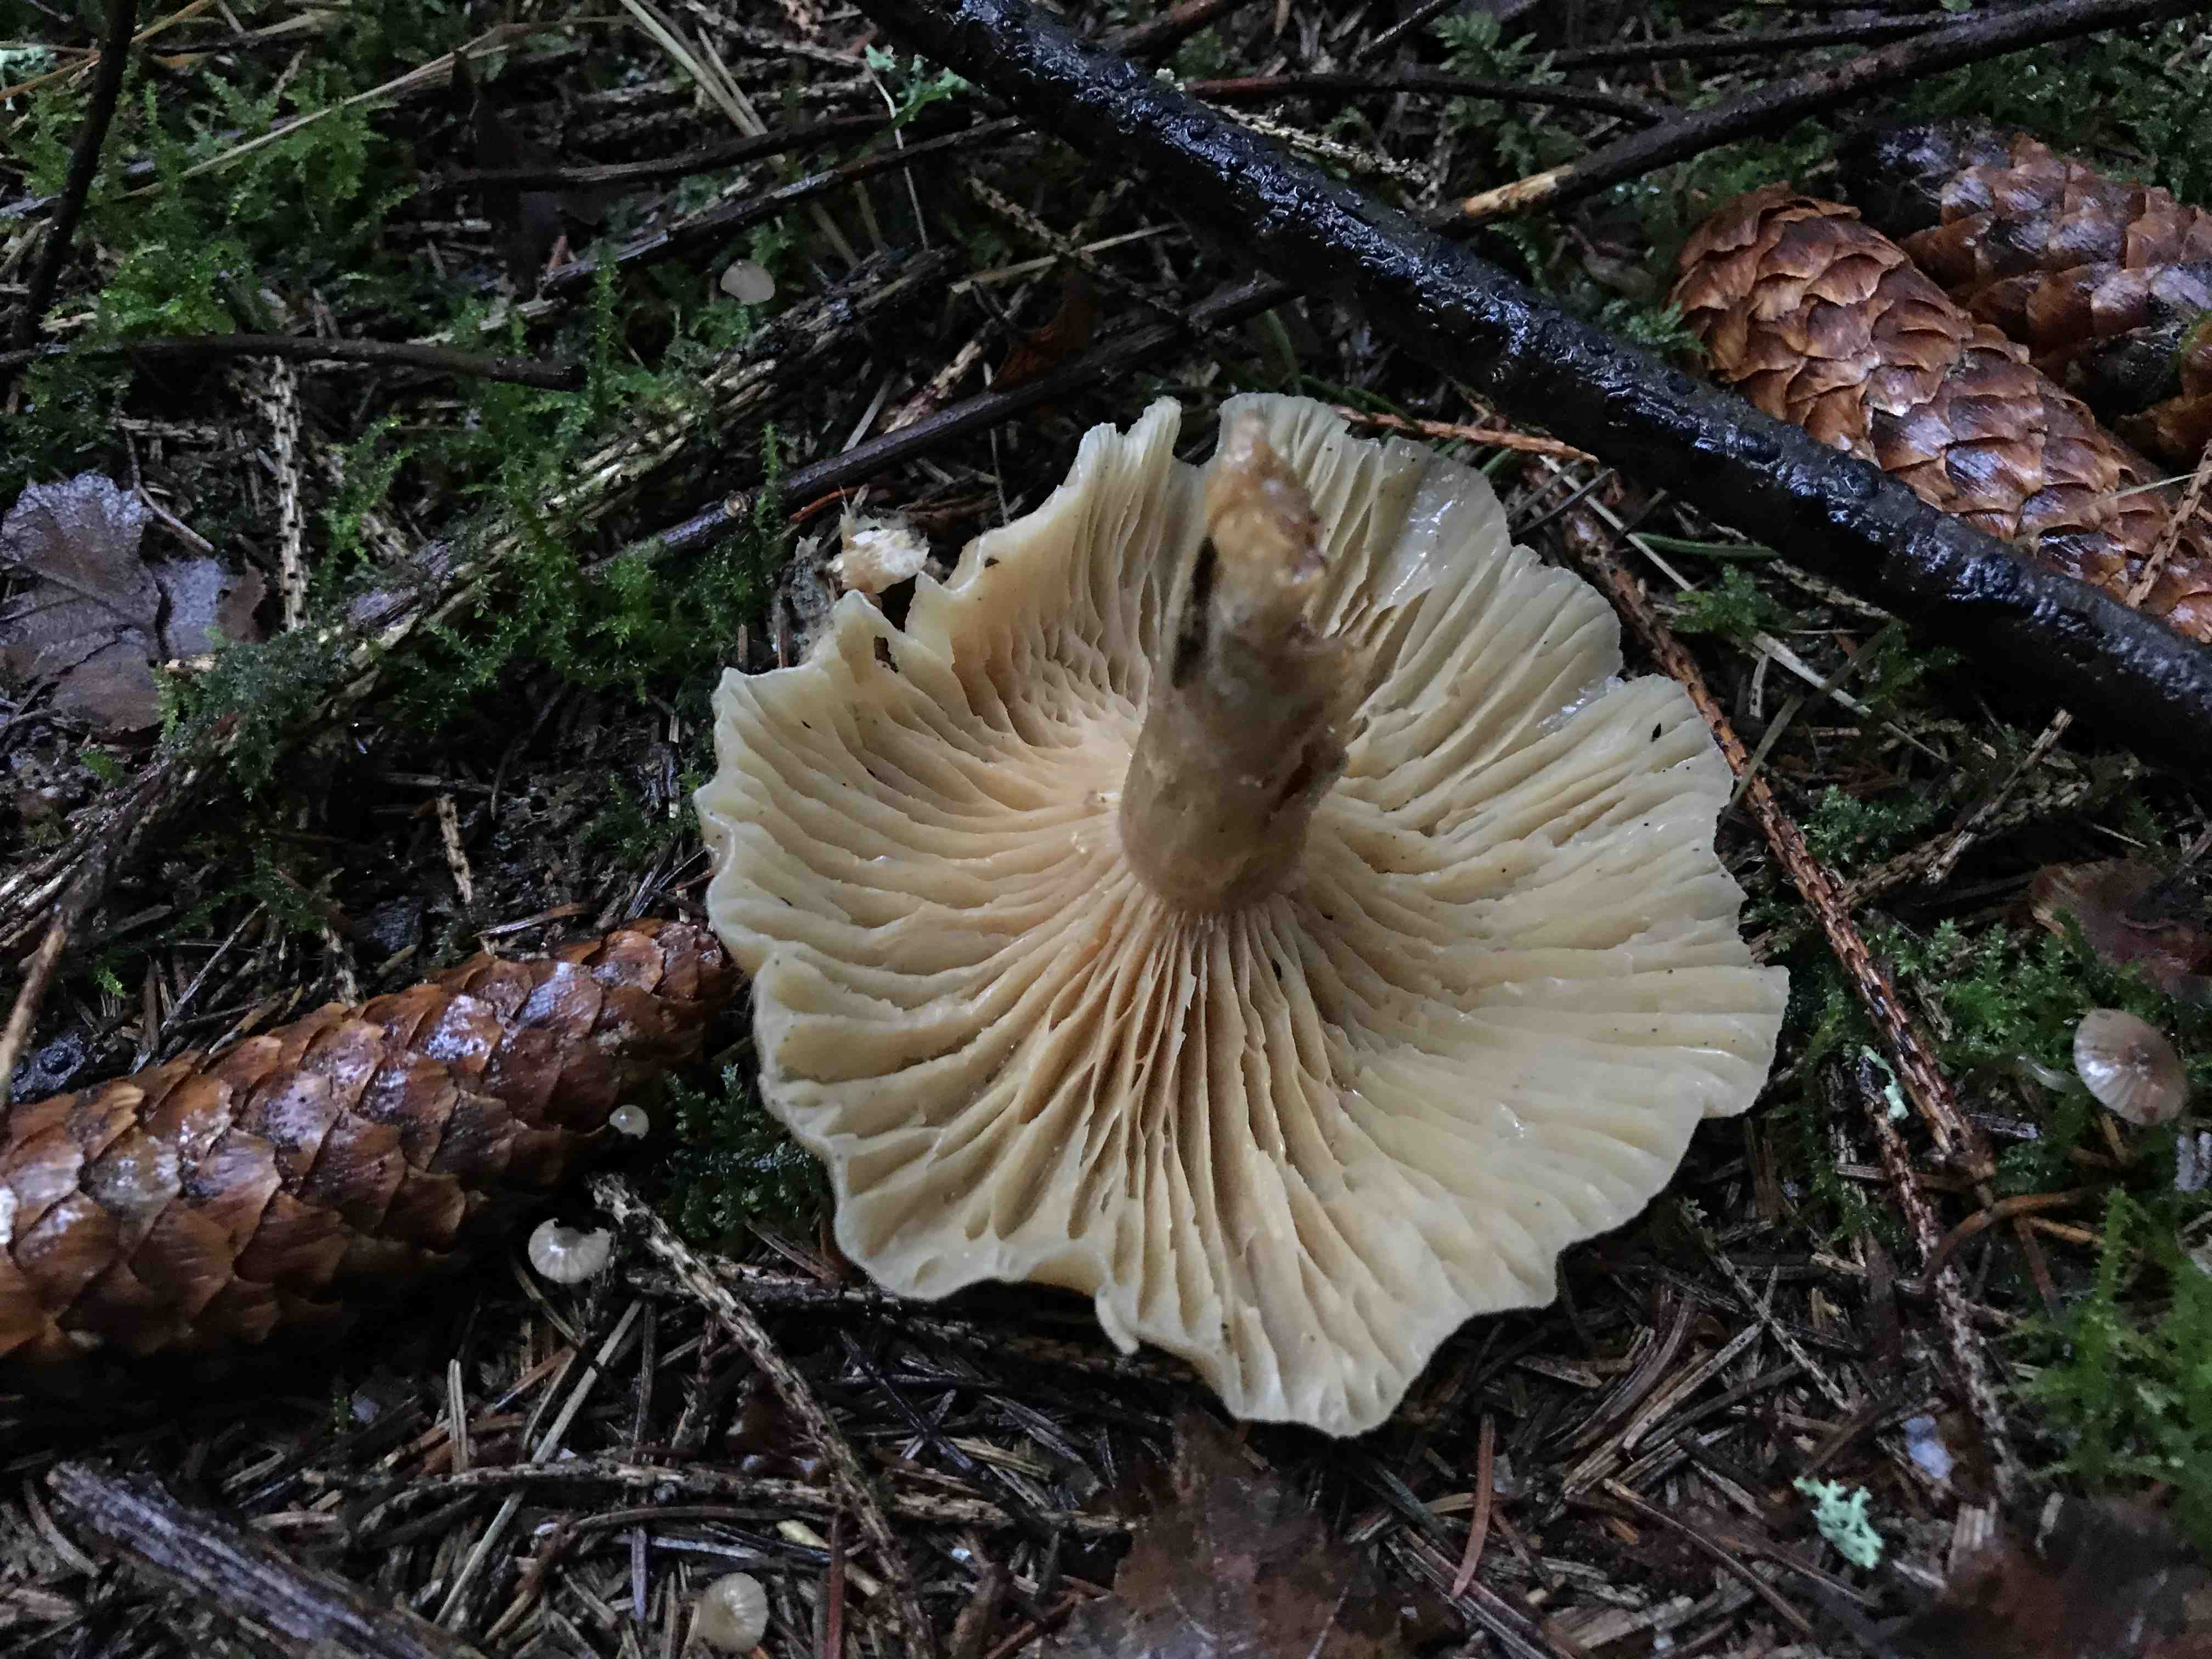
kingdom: Fungi
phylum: Basidiomycota
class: Agaricomycetes
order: Agaricales
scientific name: Agaricales
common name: champignonordenen
